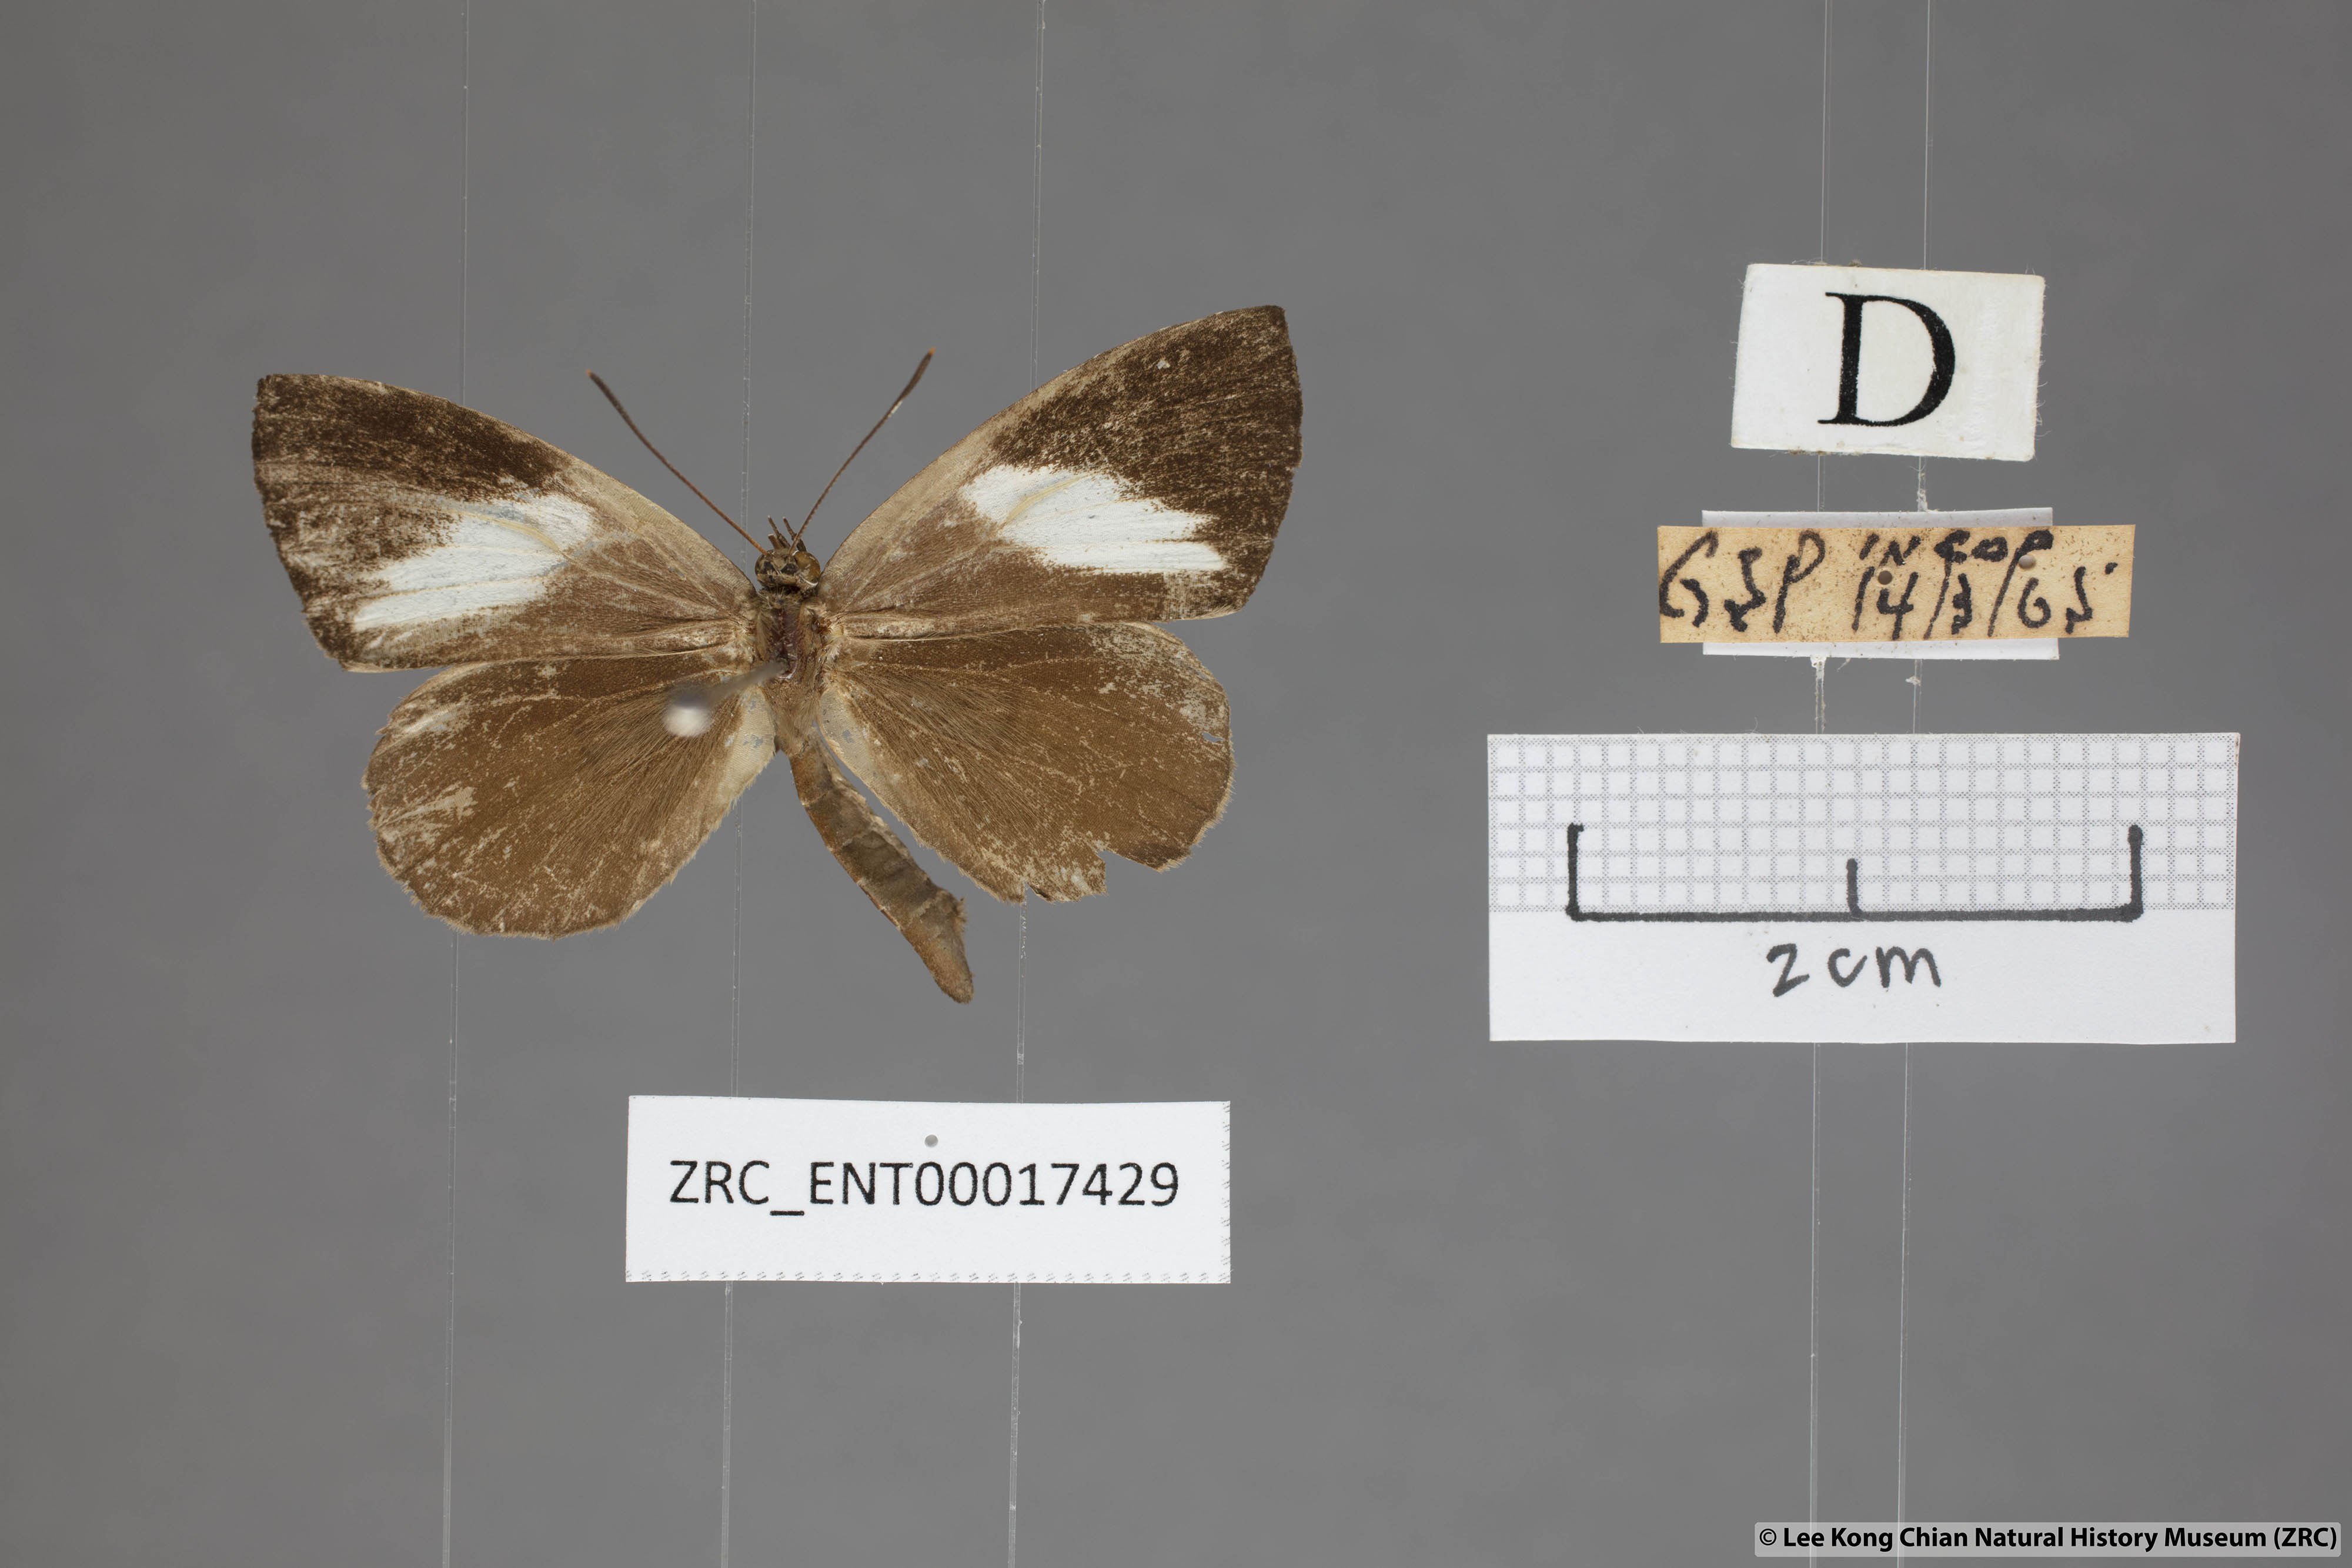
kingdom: Animalia
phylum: Arthropoda
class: Insecta
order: Lepidoptera
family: Lycaenidae
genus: Miletus
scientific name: Miletus biggsii
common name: Bigg's brownie
